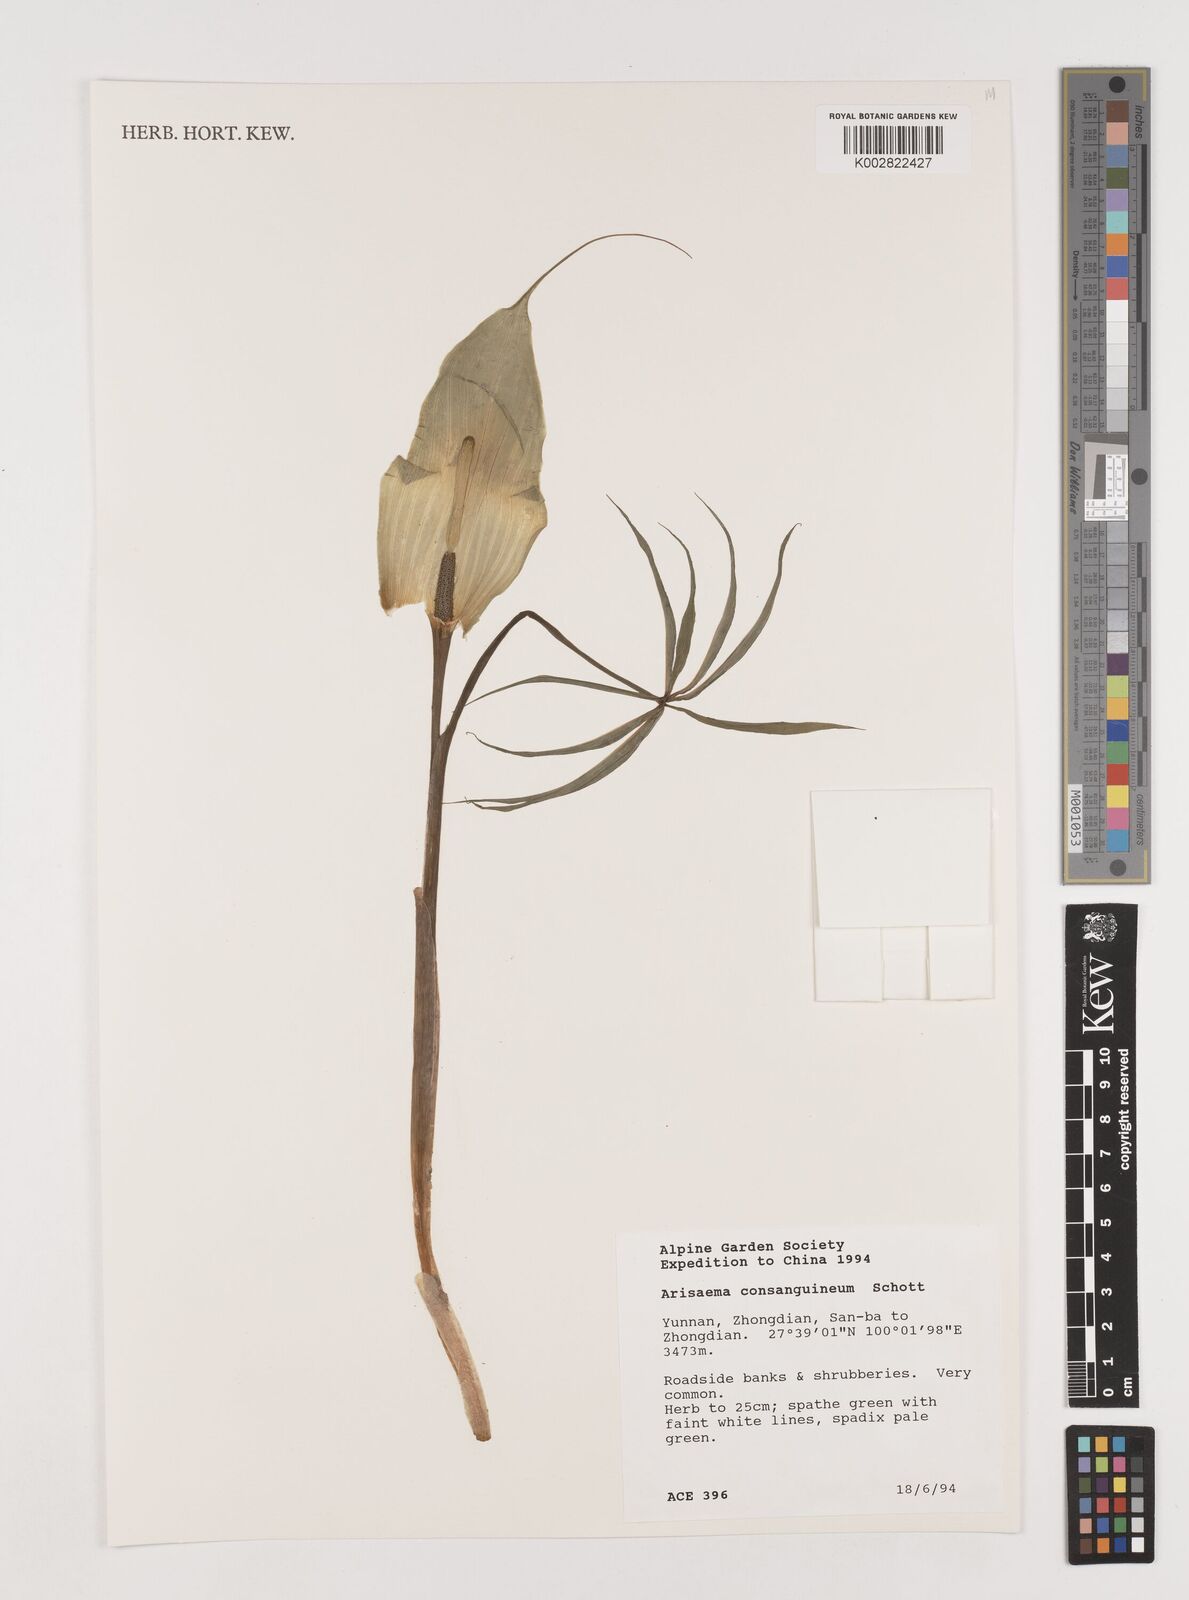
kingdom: Plantae
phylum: Tracheophyta
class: Liliopsida
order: Alismatales
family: Araceae
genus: Arisaema
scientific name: Arisaema erubescens
